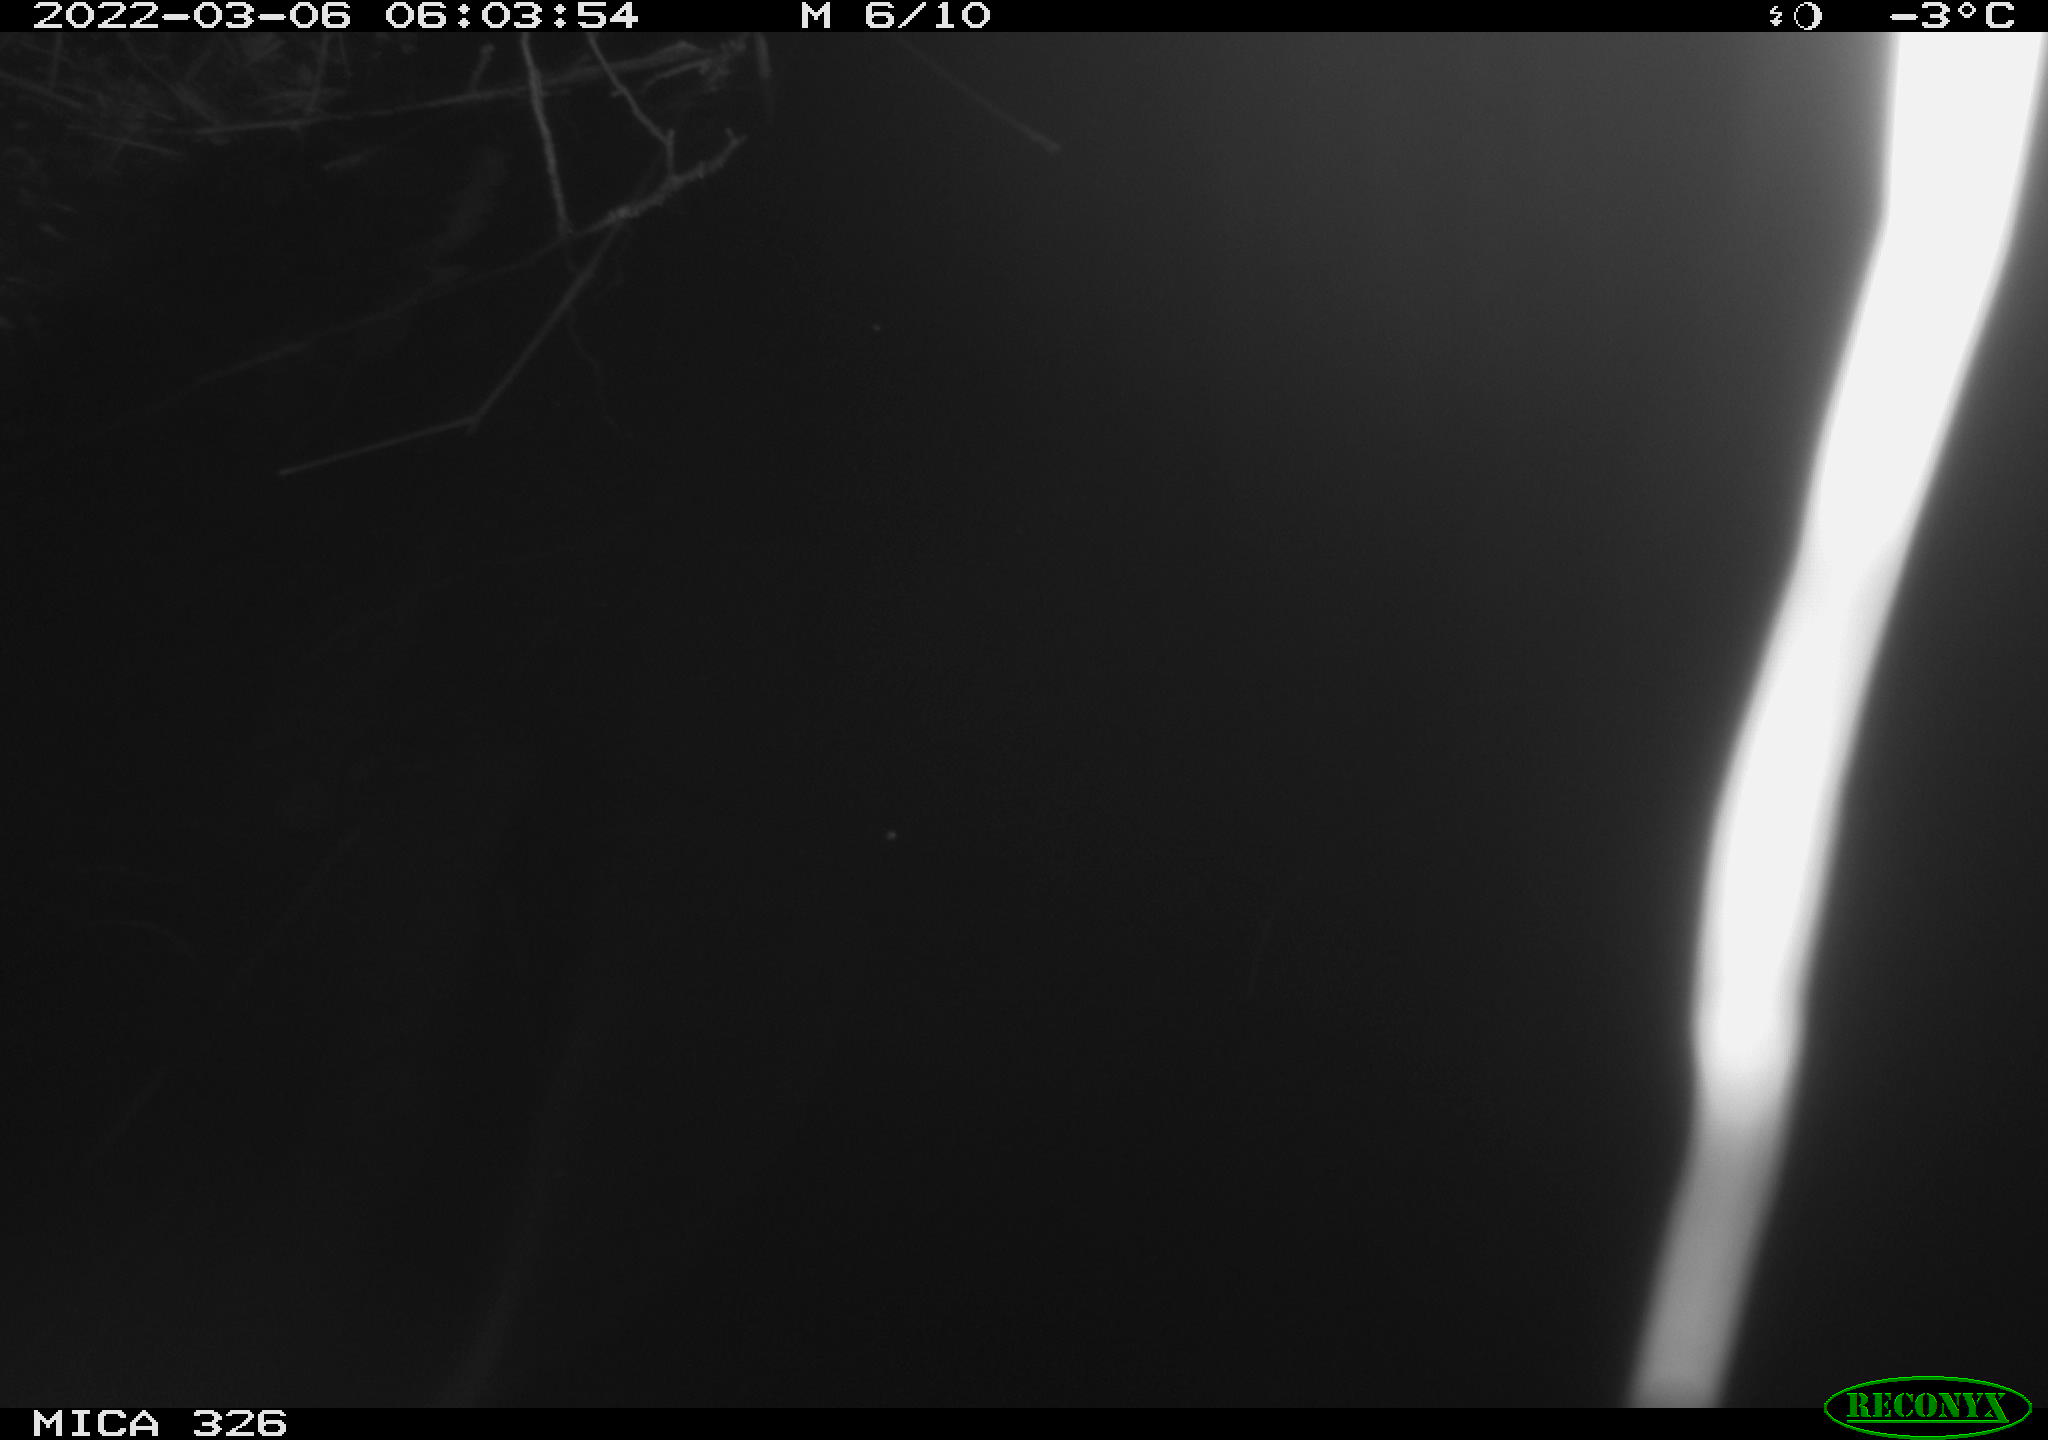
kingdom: Animalia
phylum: Chordata
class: Mammalia
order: Rodentia
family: Cricetidae
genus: Ondatra
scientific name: Ondatra zibethicus
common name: Muskrat
